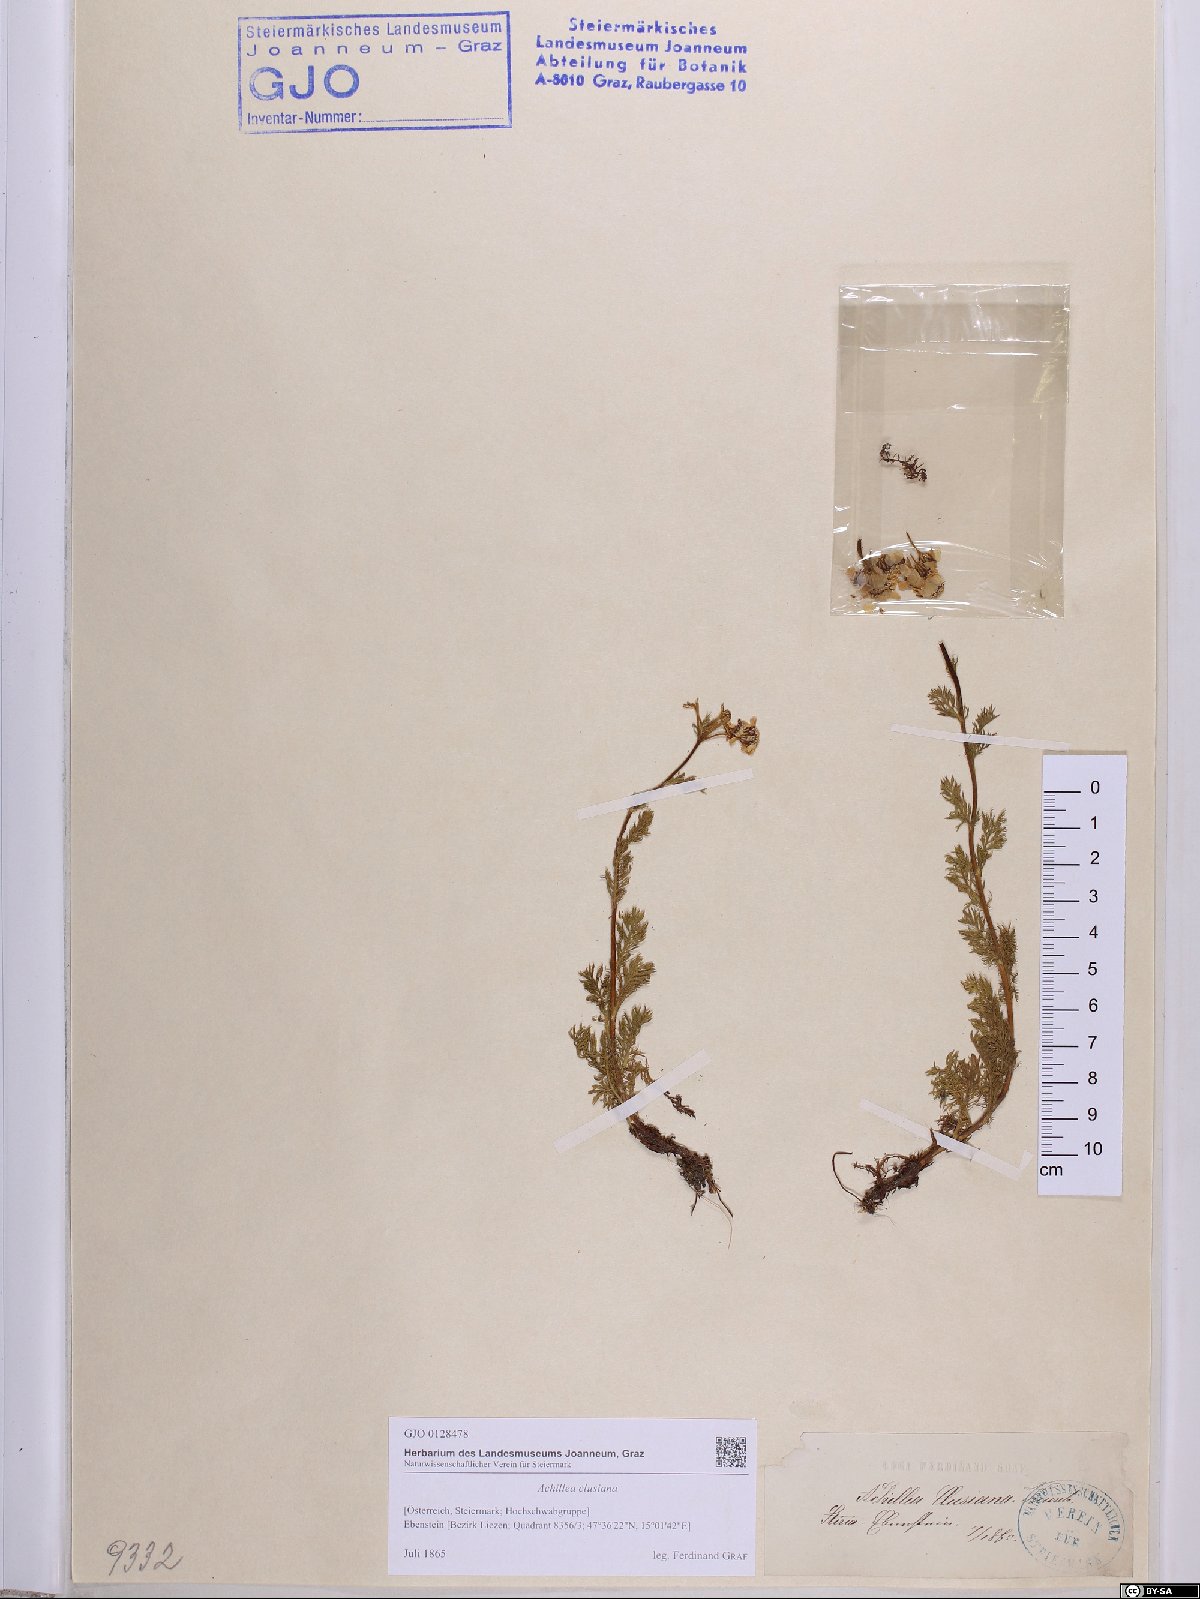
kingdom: Plantae
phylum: Tracheophyta
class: Magnoliopsida
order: Asterales
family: Asteraceae
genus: Achillea
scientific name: Achillea clusiana
